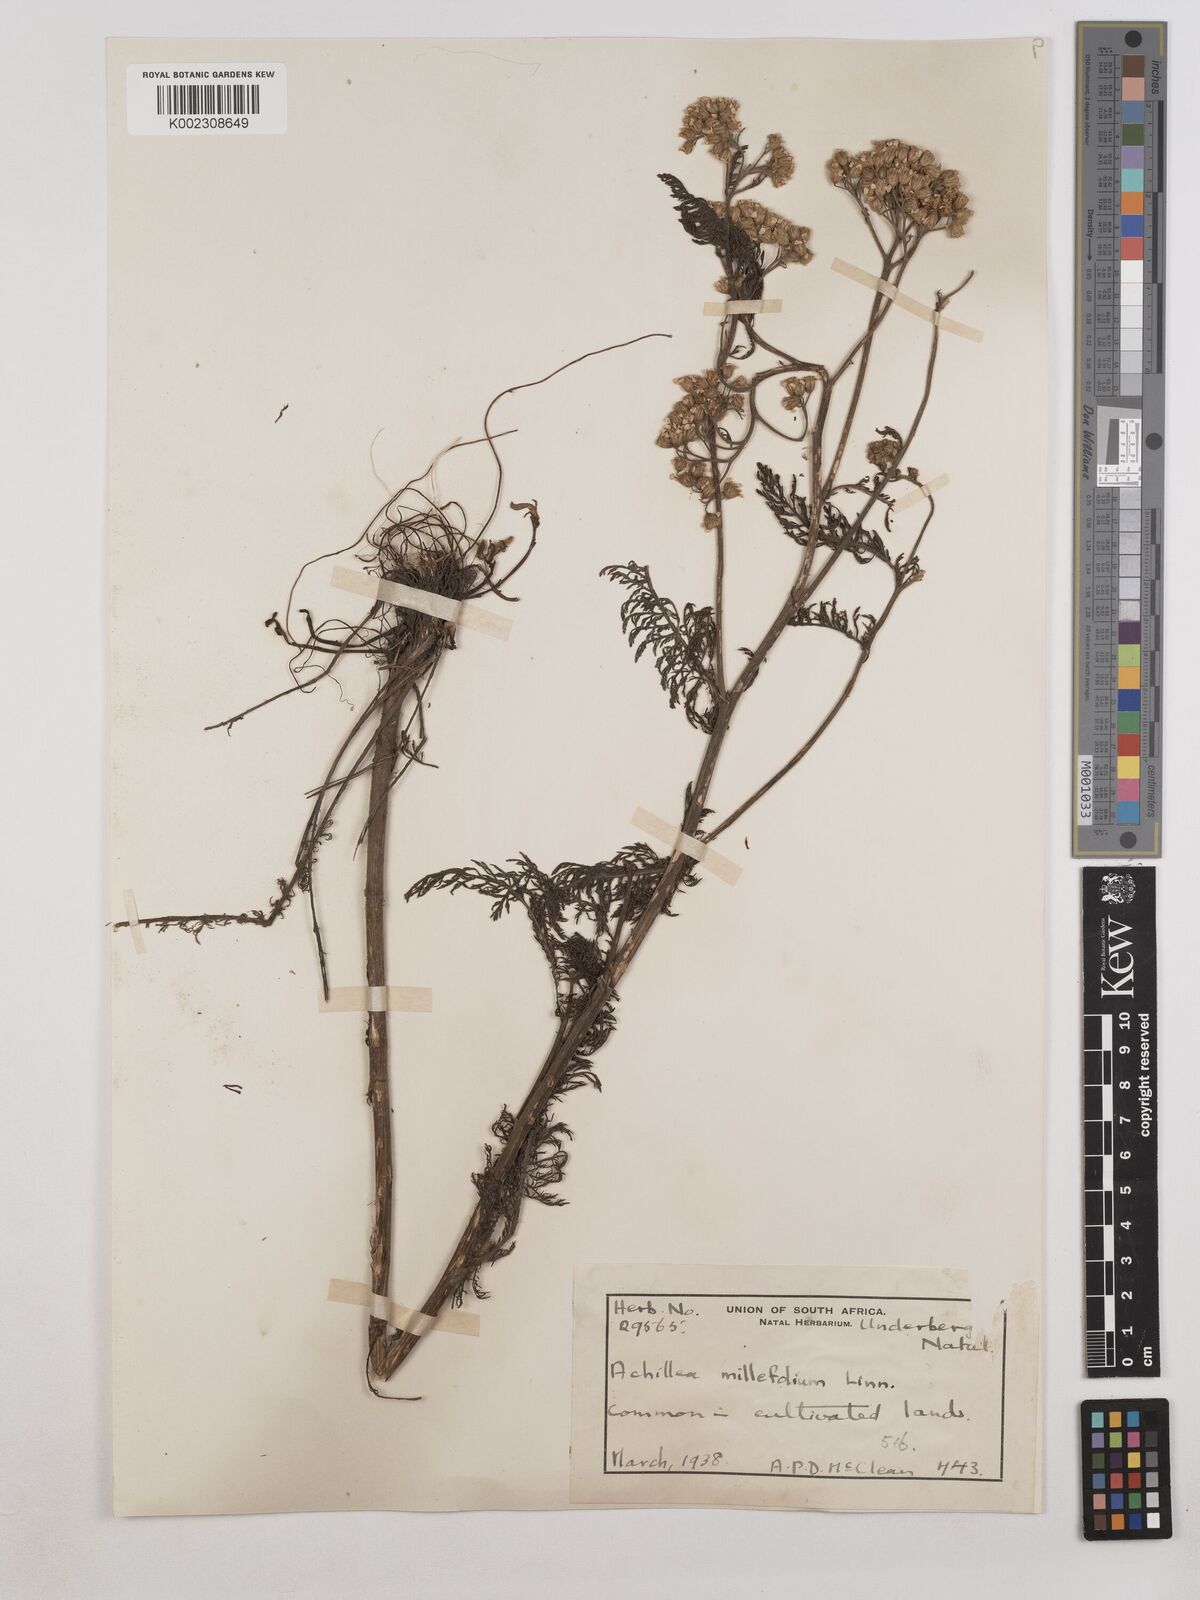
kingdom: Plantae
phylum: Tracheophyta
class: Magnoliopsida
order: Asterales
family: Asteraceae
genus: Achillea
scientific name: Achillea millefolium
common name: Yarrow
